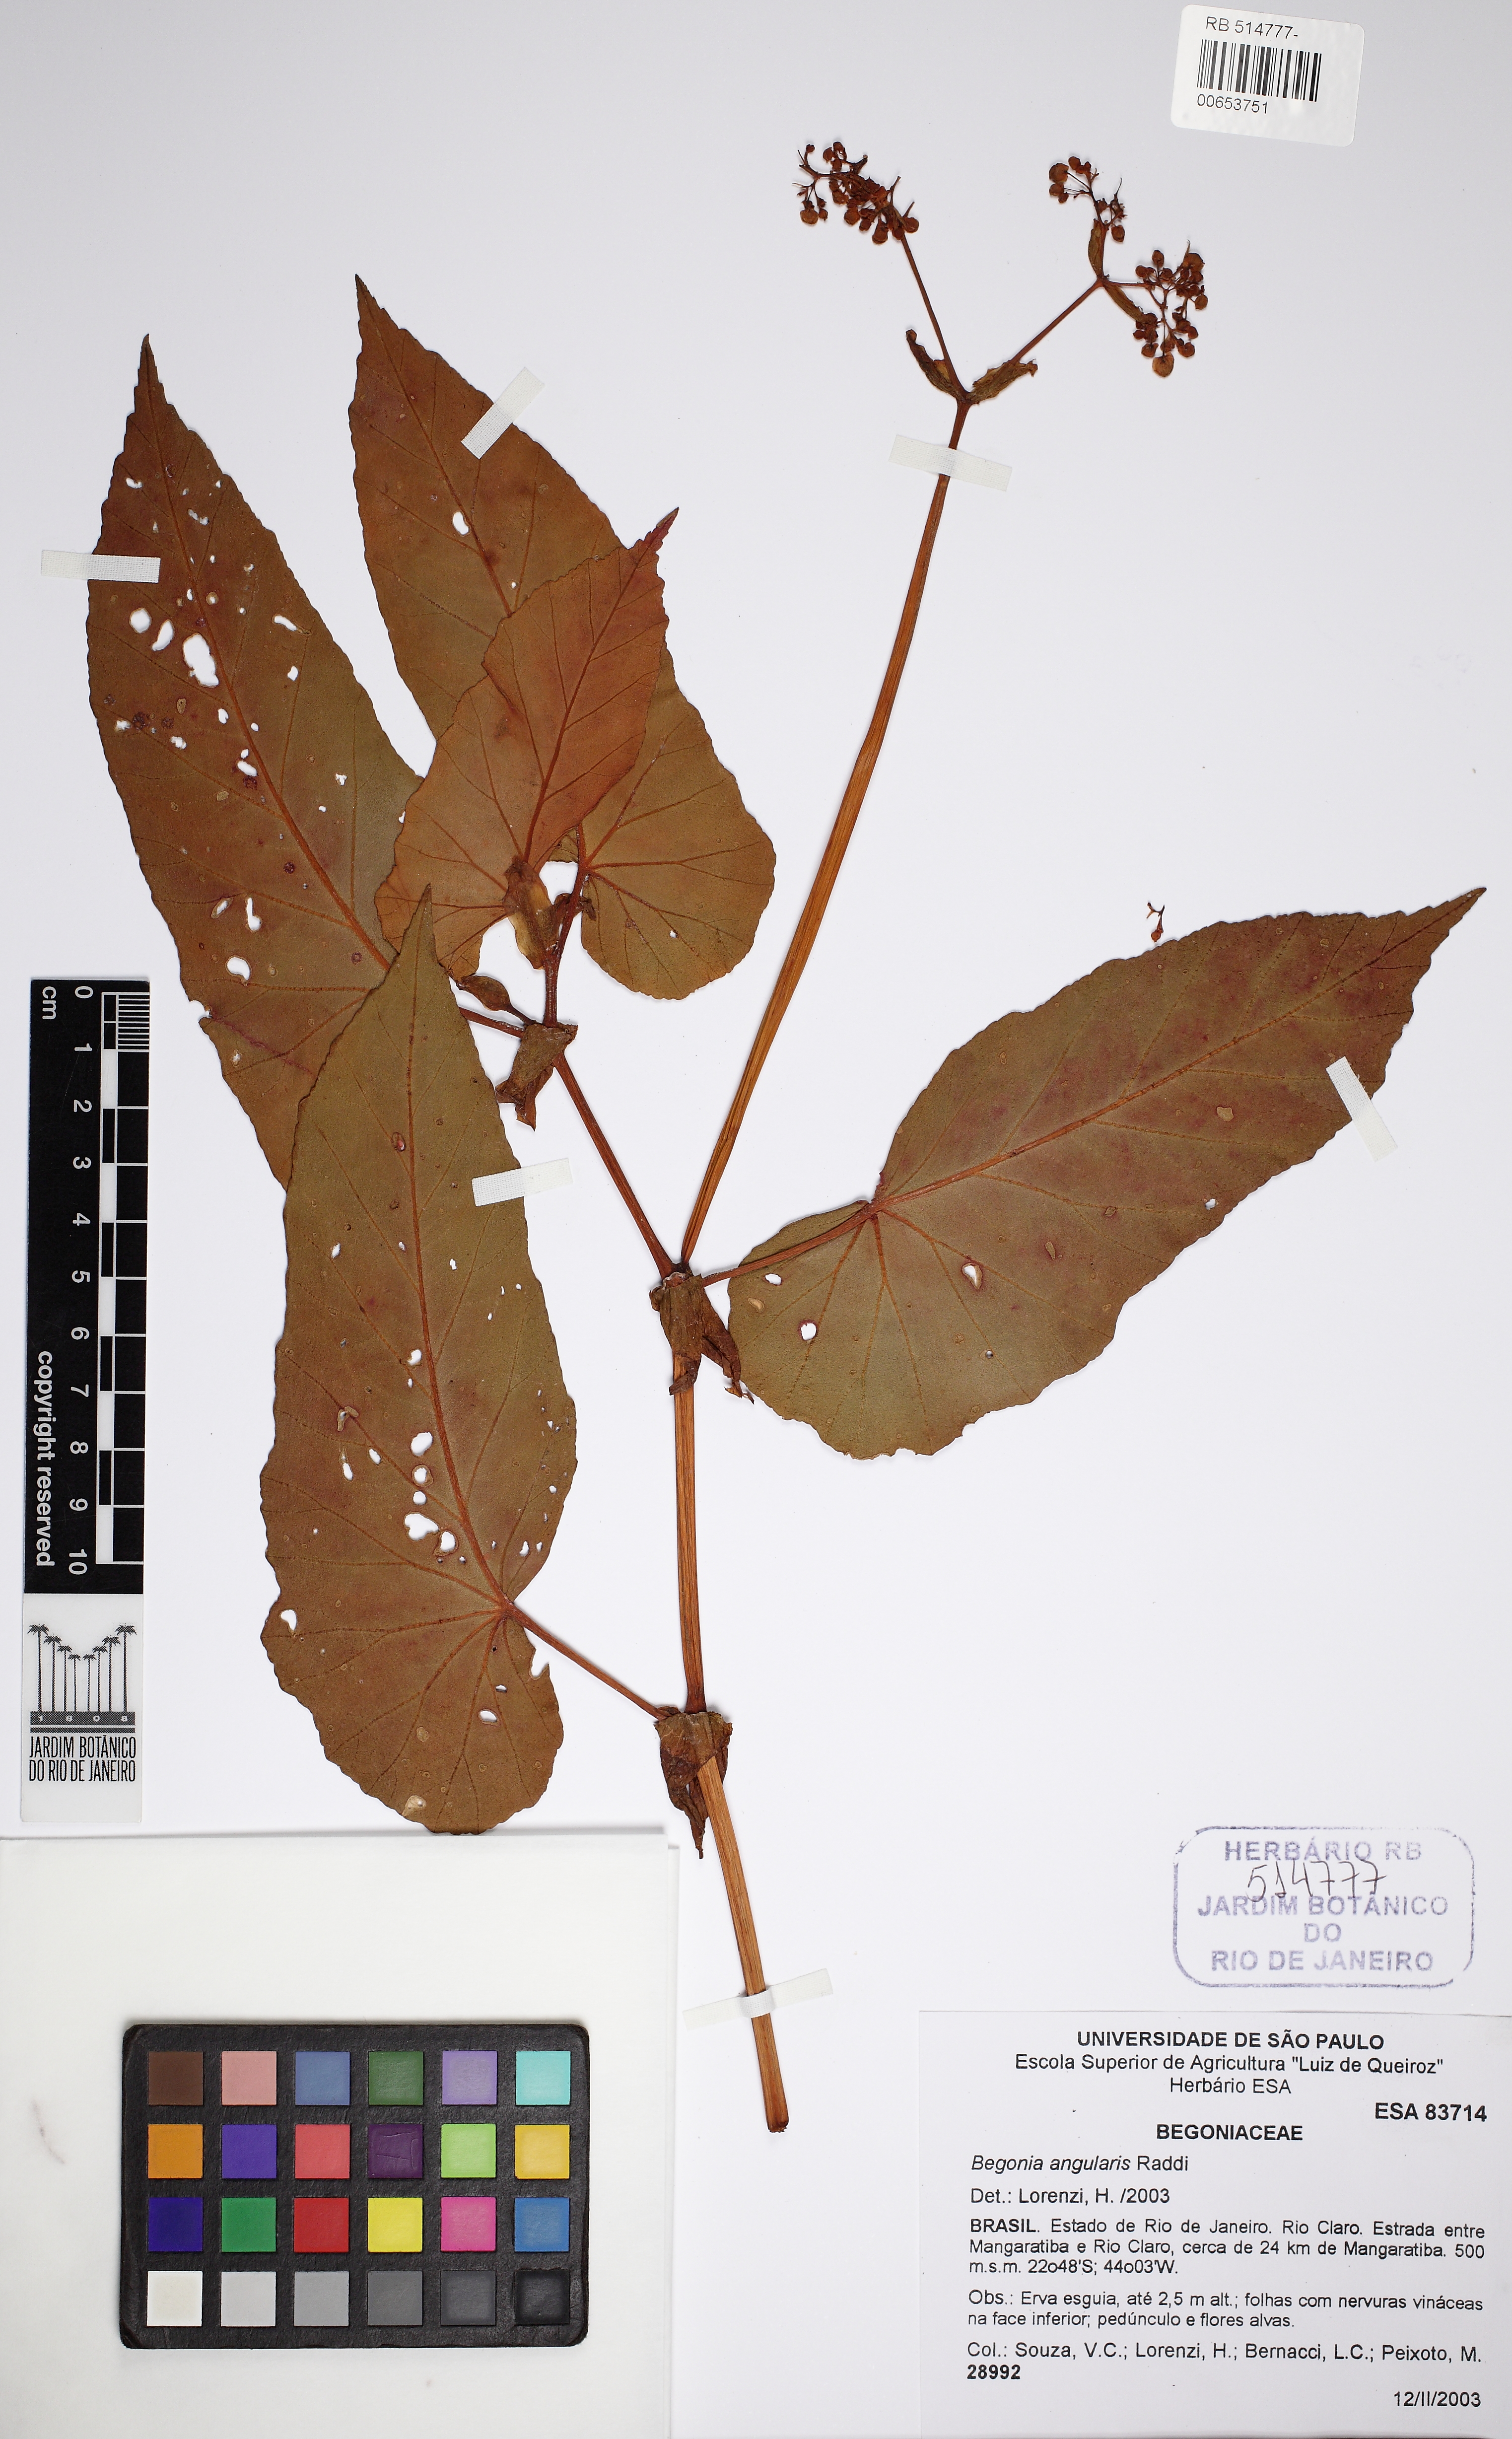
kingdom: Plantae
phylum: Tracheophyta
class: Magnoliopsida
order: Cucurbitales
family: Begoniaceae
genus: Begonia
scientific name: Begonia angularis
